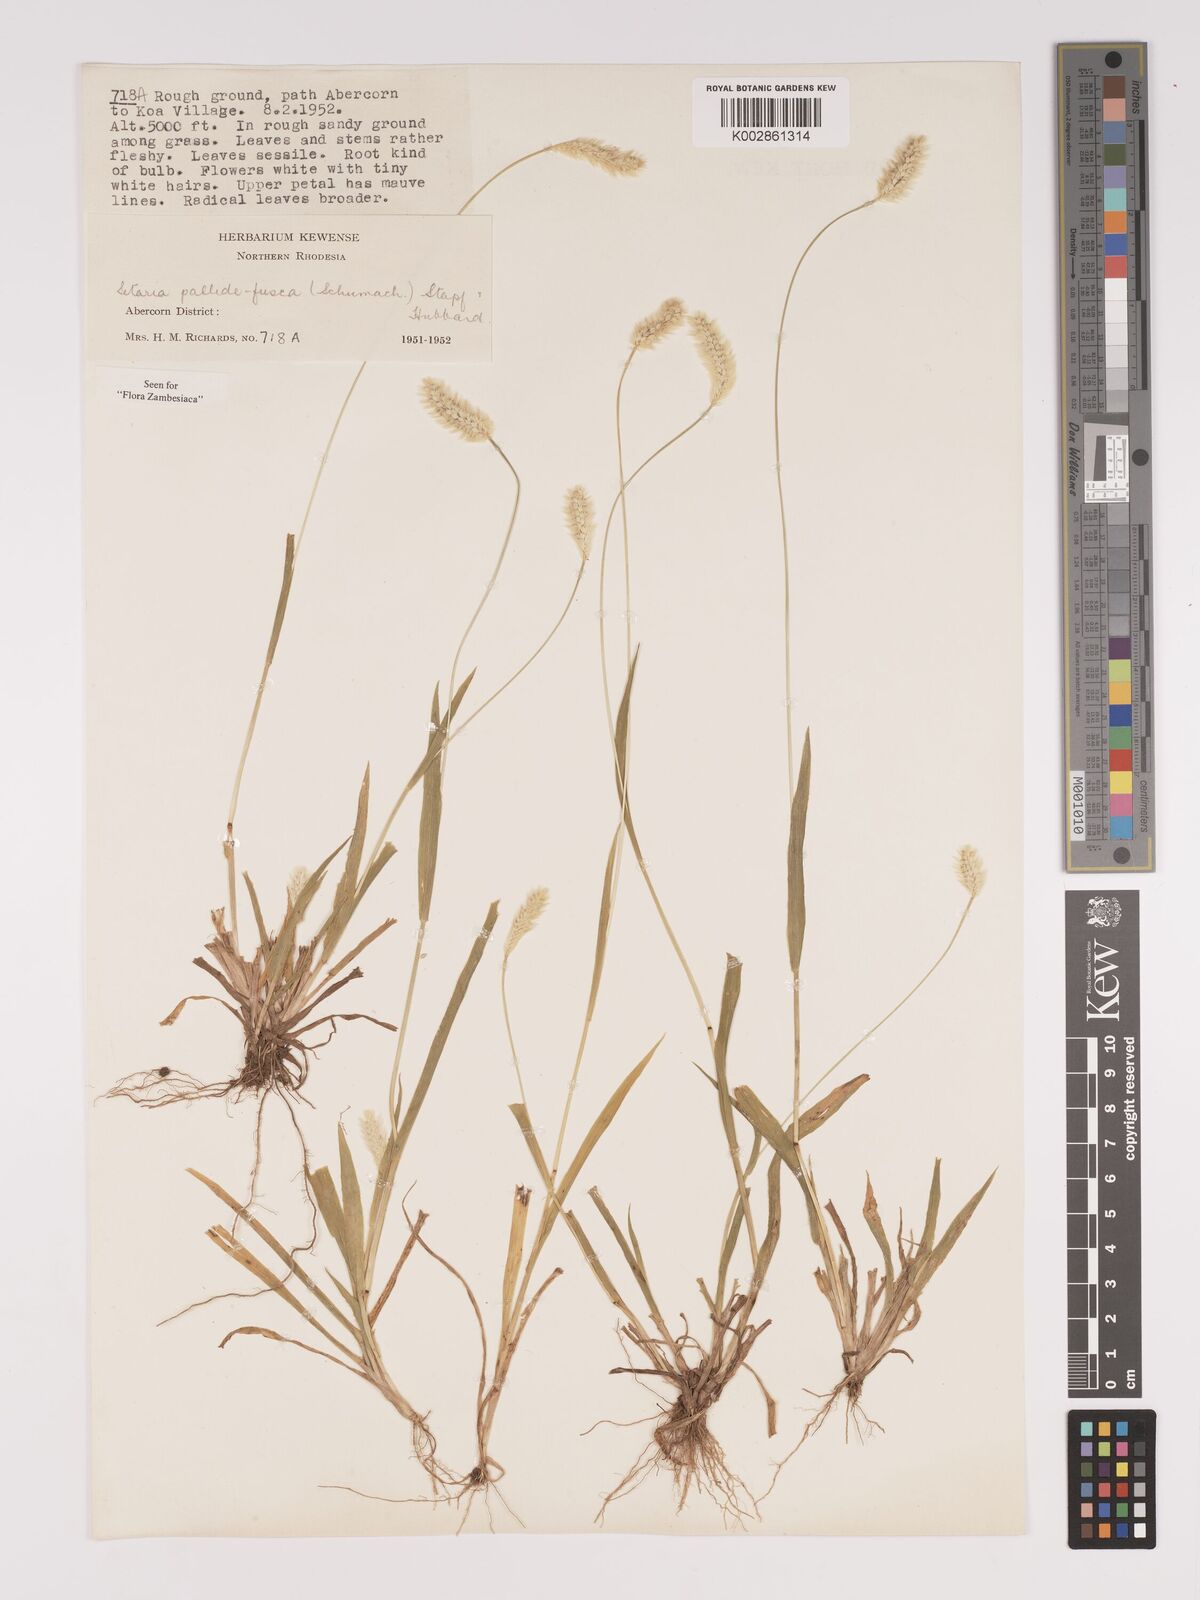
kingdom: Plantae
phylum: Tracheophyta
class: Liliopsida
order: Poales
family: Poaceae
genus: Setaria
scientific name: Setaria pumila
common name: Yellow bristle-grass
